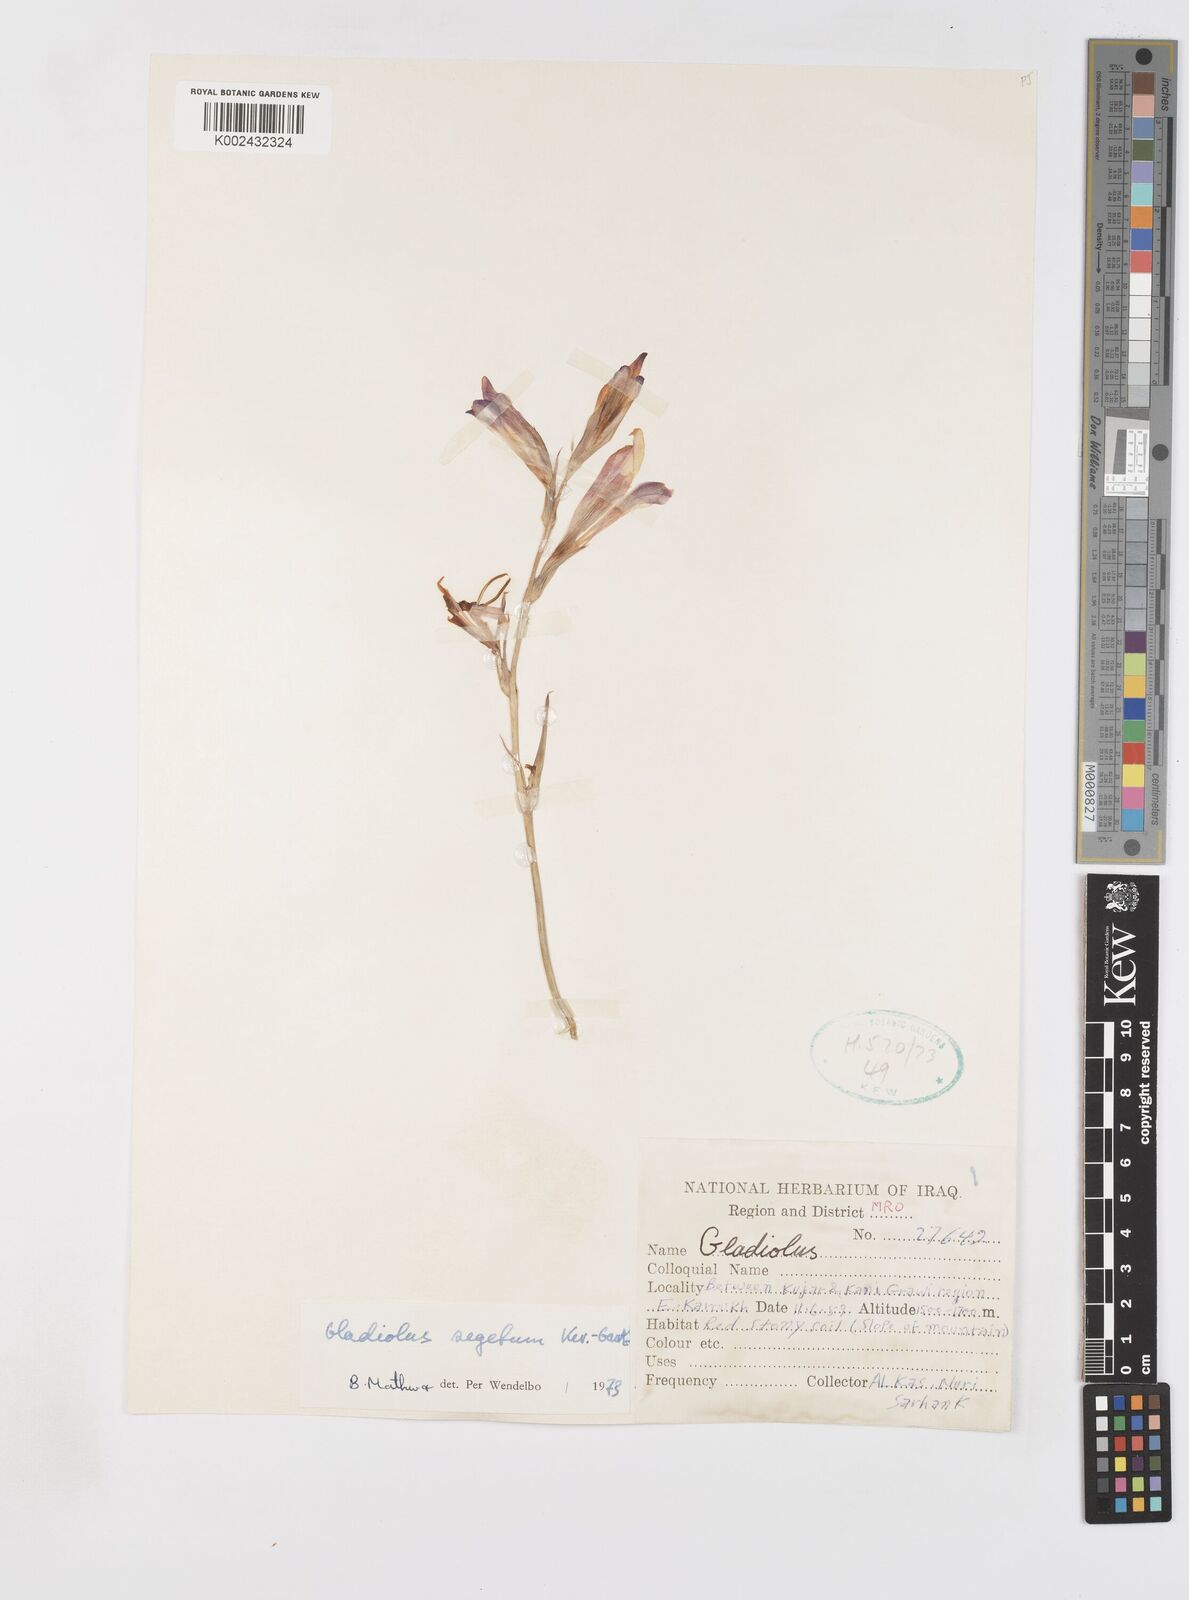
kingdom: Plantae
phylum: Tracheophyta
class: Liliopsida
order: Asparagales
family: Iridaceae
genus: Gladiolus
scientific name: Gladiolus italicus
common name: Field gladiolus
